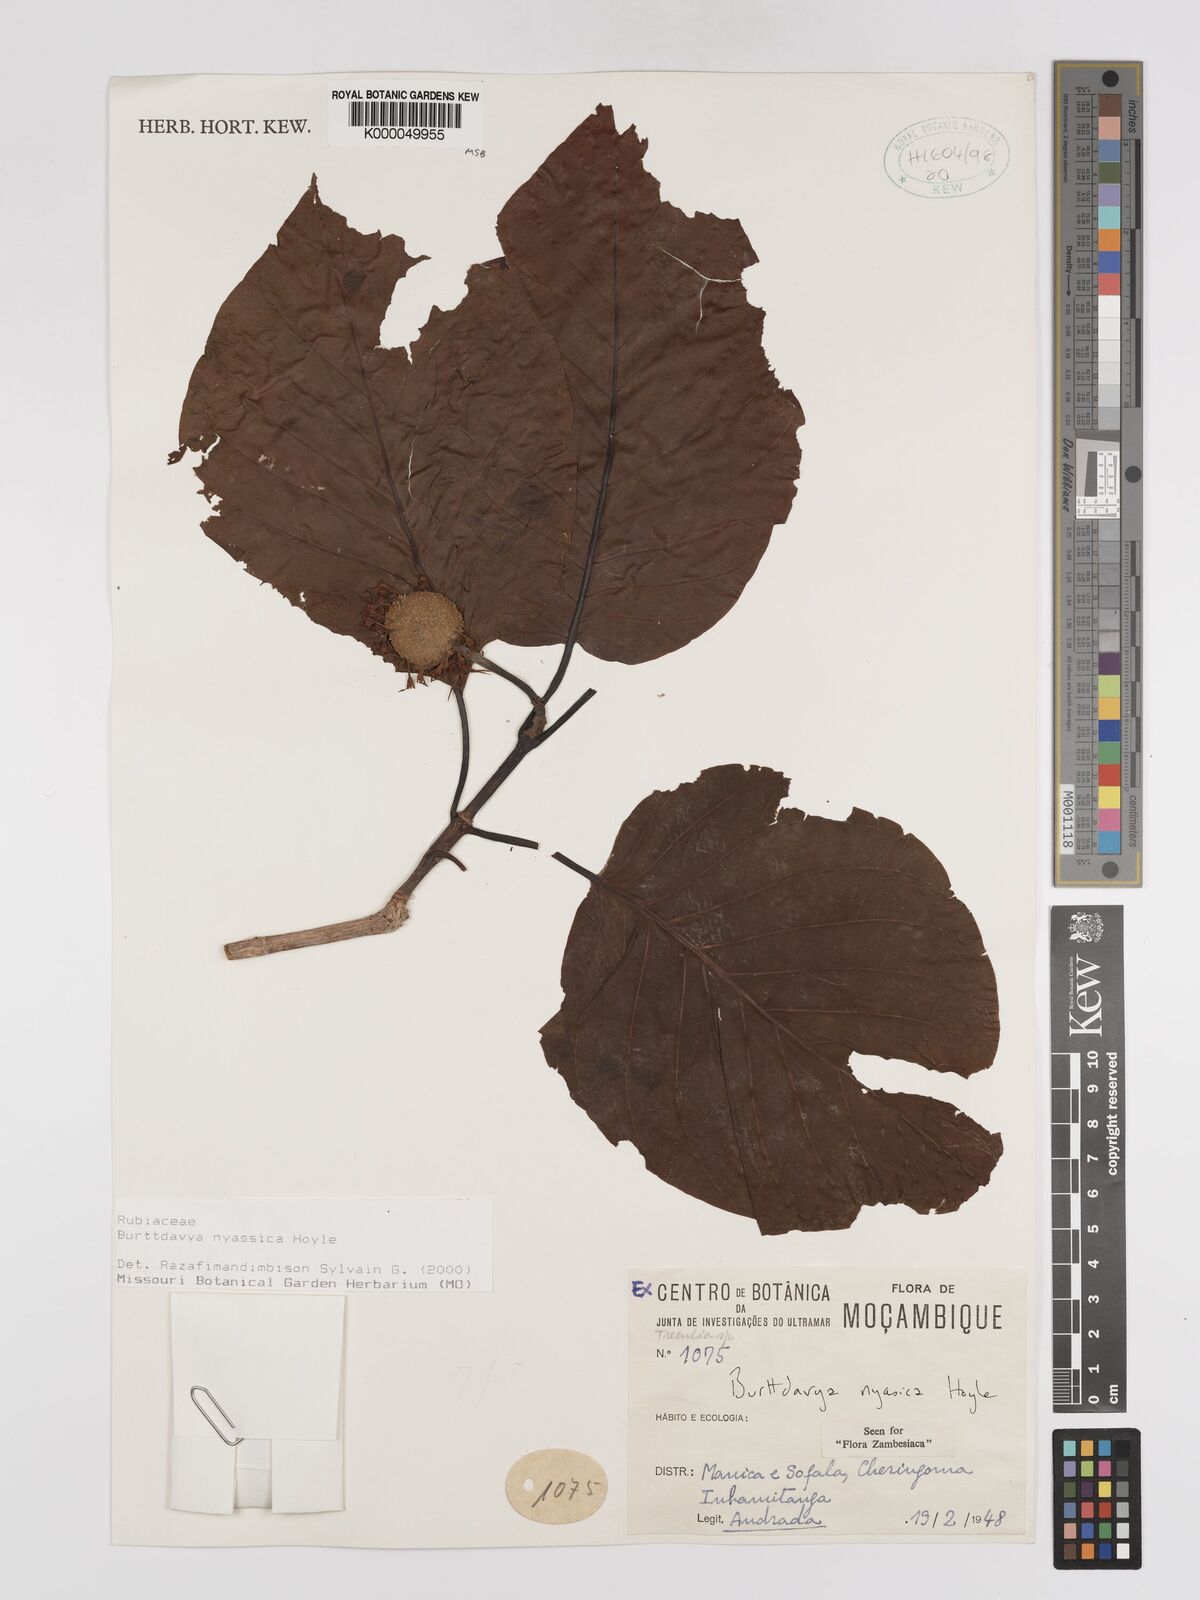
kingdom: Plantae
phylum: Tracheophyta
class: Magnoliopsida
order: Gentianales
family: Rubiaceae
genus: Nauclea
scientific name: Nauclea
